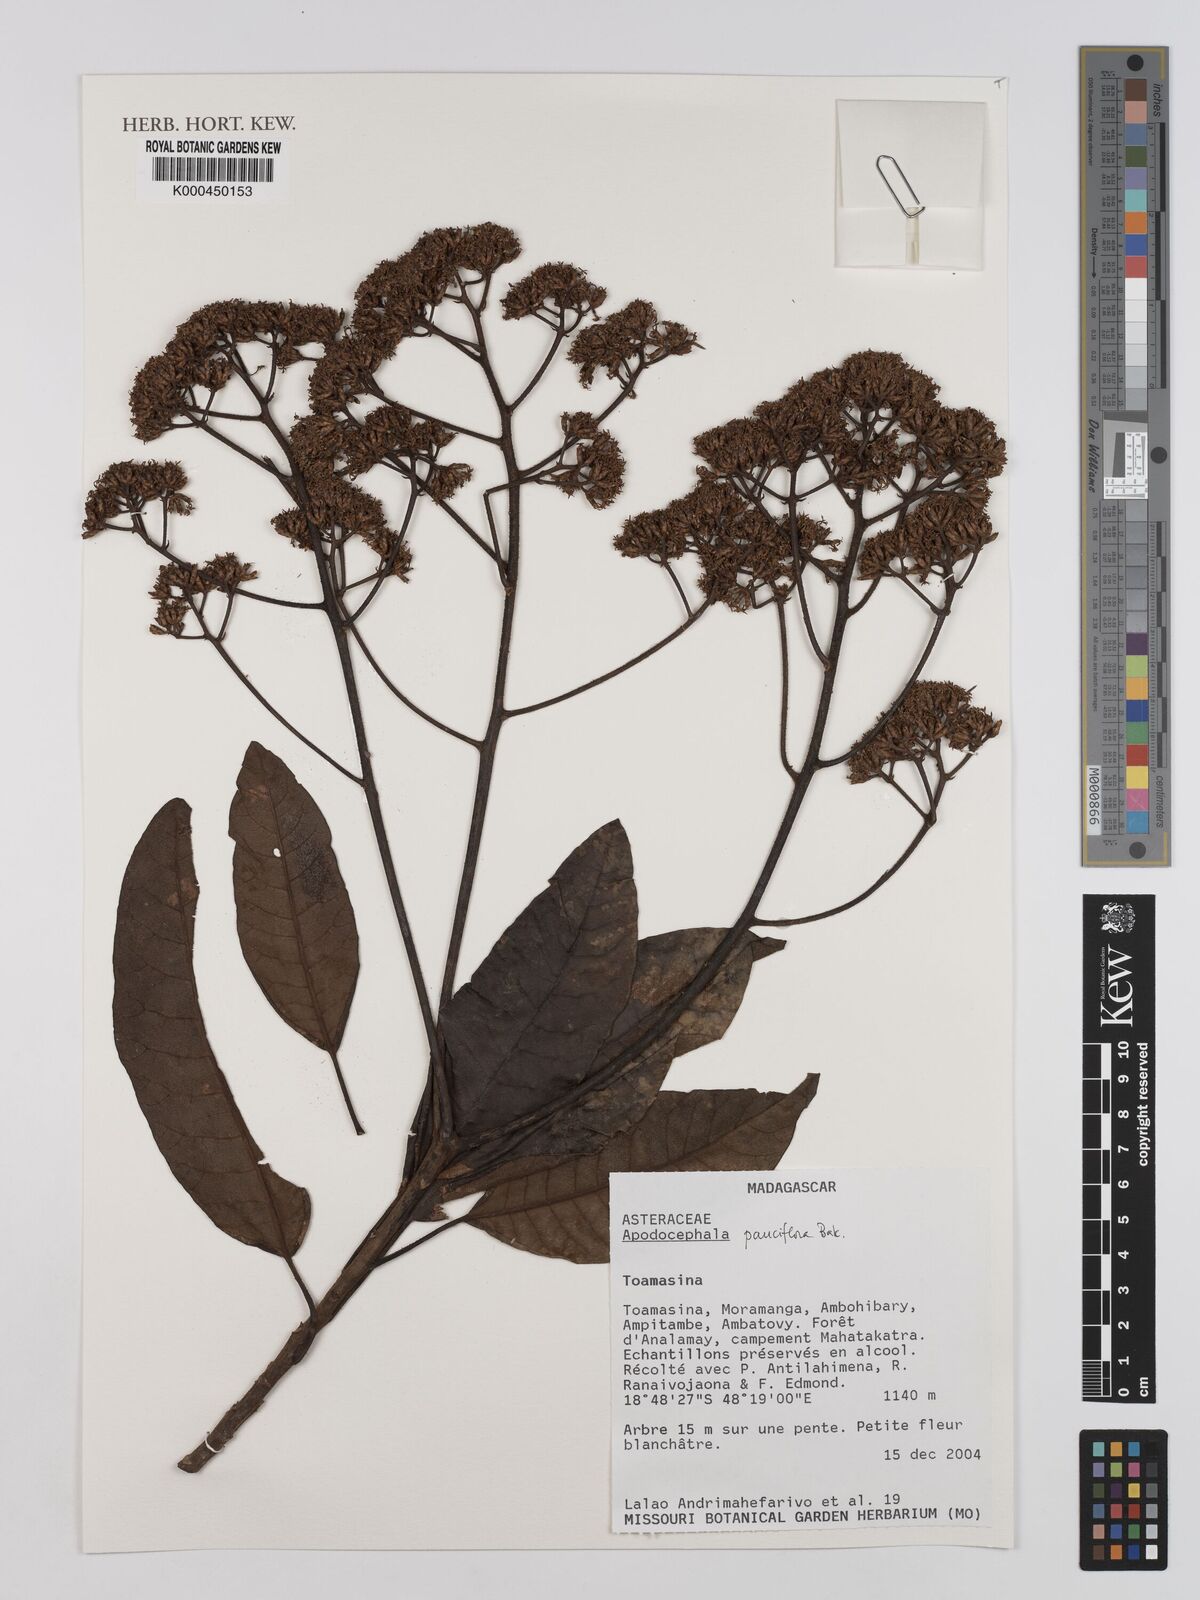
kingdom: Plantae
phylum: Tracheophyta
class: Magnoliopsida
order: Asterales
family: Asteraceae
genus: Apodocephala
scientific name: Apodocephala pauciflora
